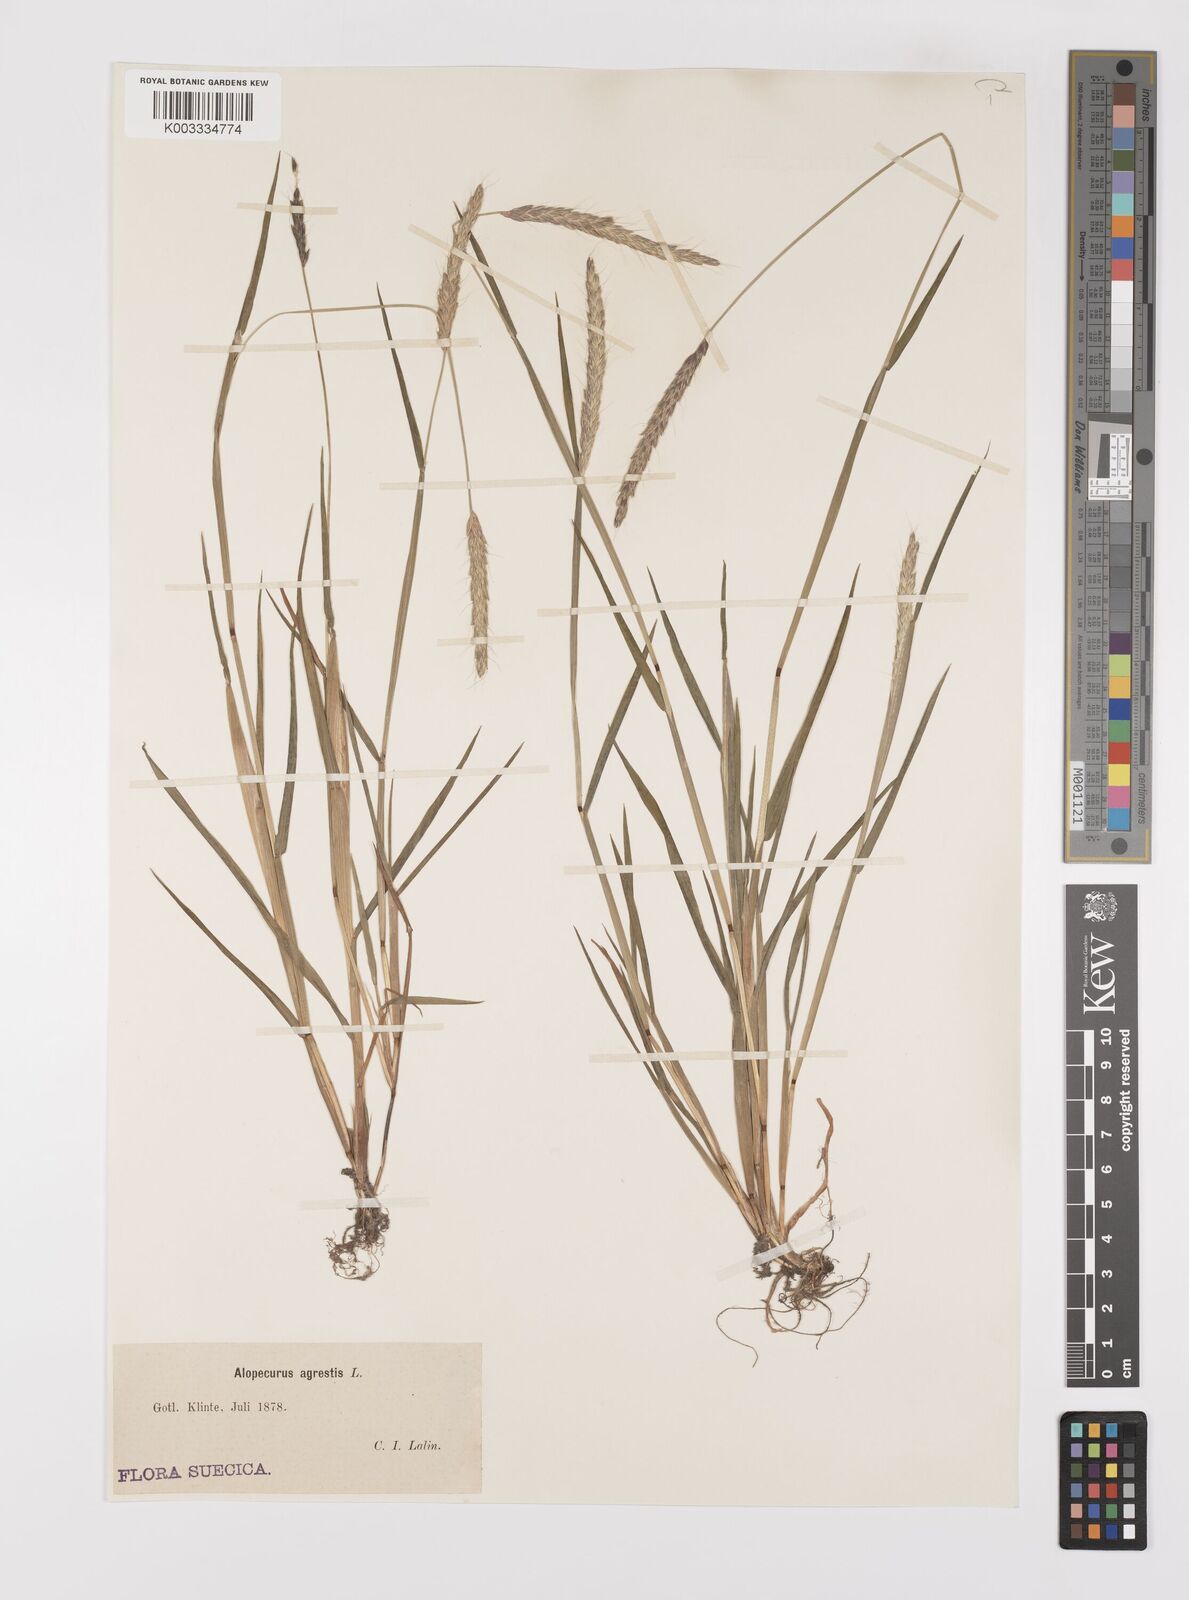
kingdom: Plantae
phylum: Tracheophyta
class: Liliopsida
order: Poales
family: Poaceae
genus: Alopecurus
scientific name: Alopecurus myosuroides
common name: Black-grass
